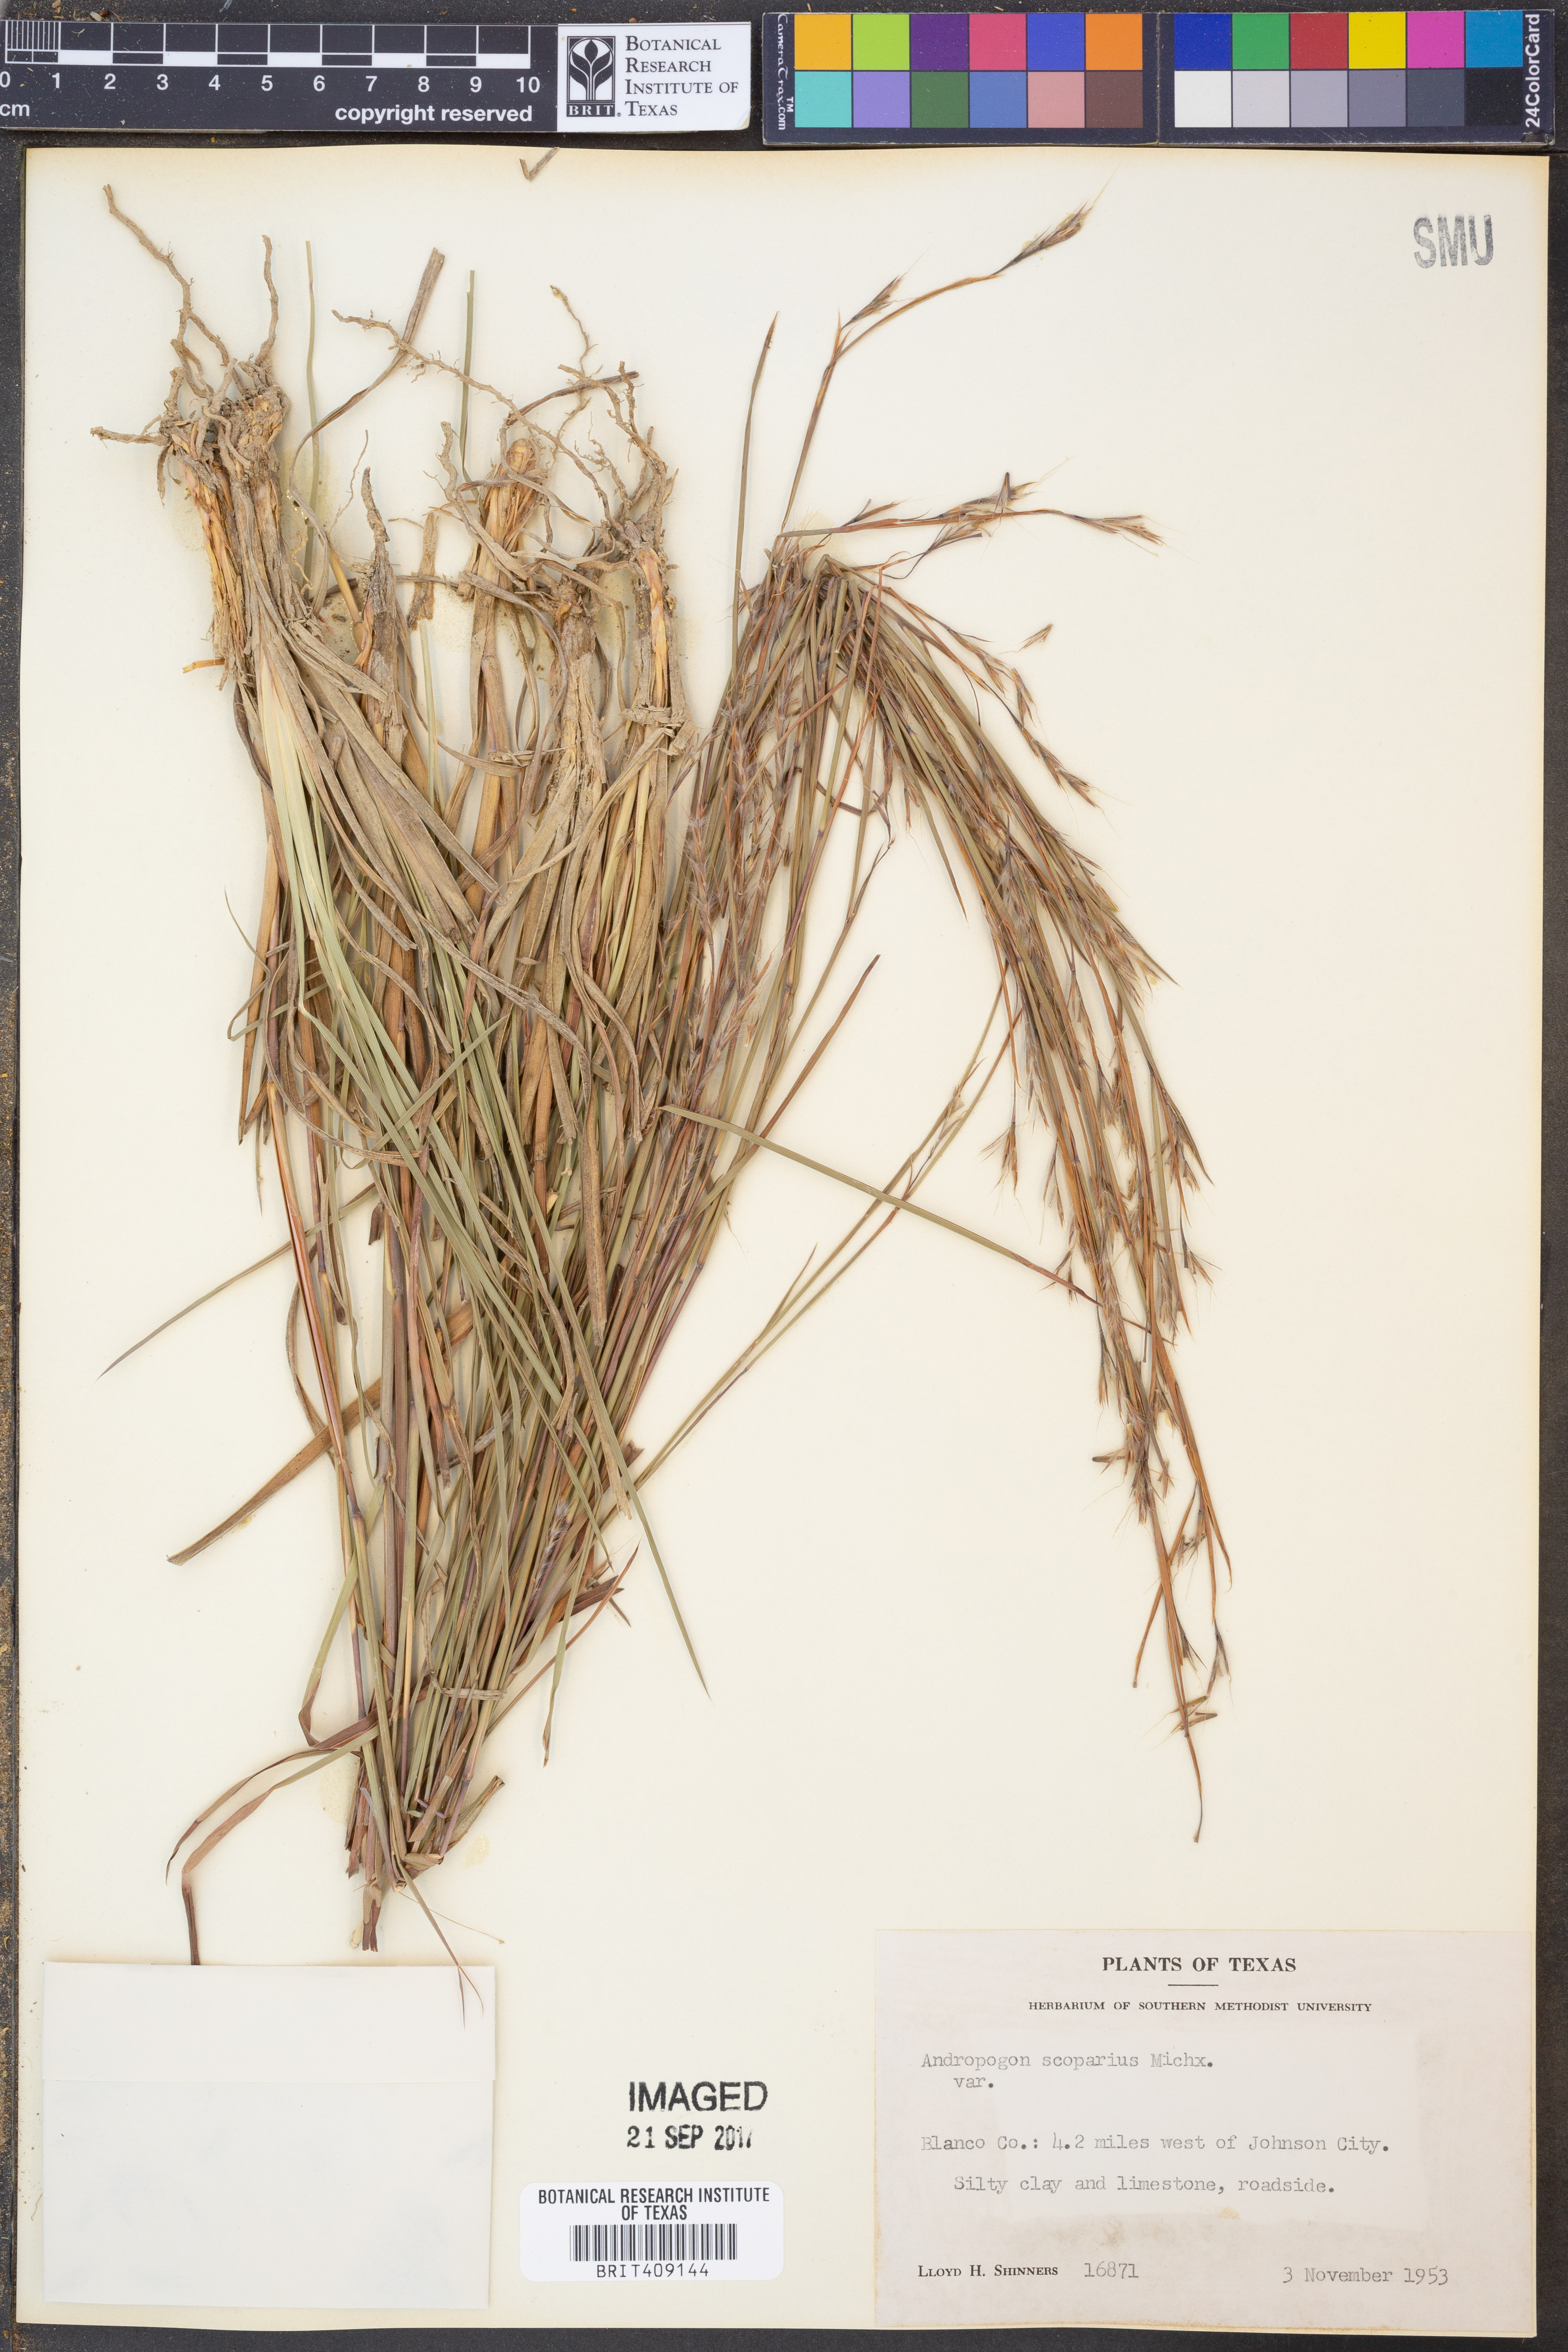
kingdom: Plantae
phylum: Tracheophyta
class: Liliopsida
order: Poales
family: Poaceae
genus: Schizachyrium
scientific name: Schizachyrium scoparium
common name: Little bluestem
